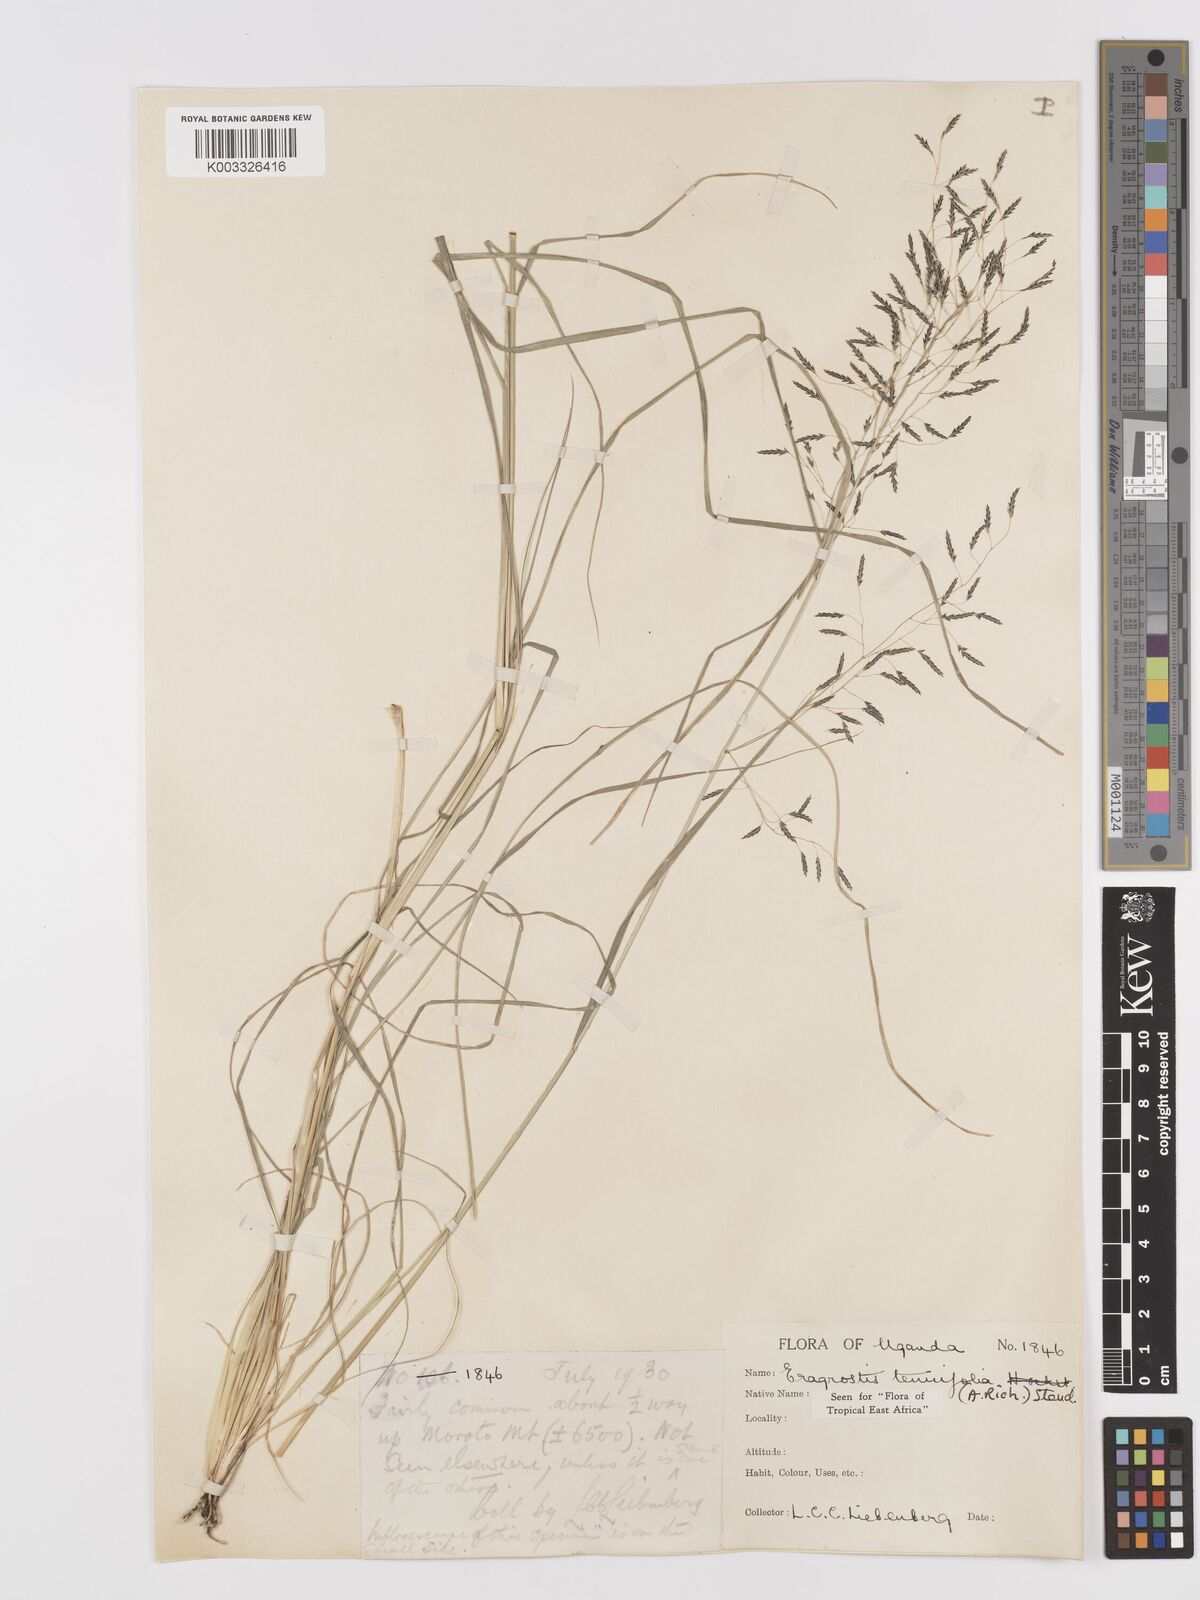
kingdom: Plantae
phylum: Tracheophyta
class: Liliopsida
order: Poales
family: Poaceae
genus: Eragrostis
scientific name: Eragrostis tenuifolia
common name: Elastic grass
